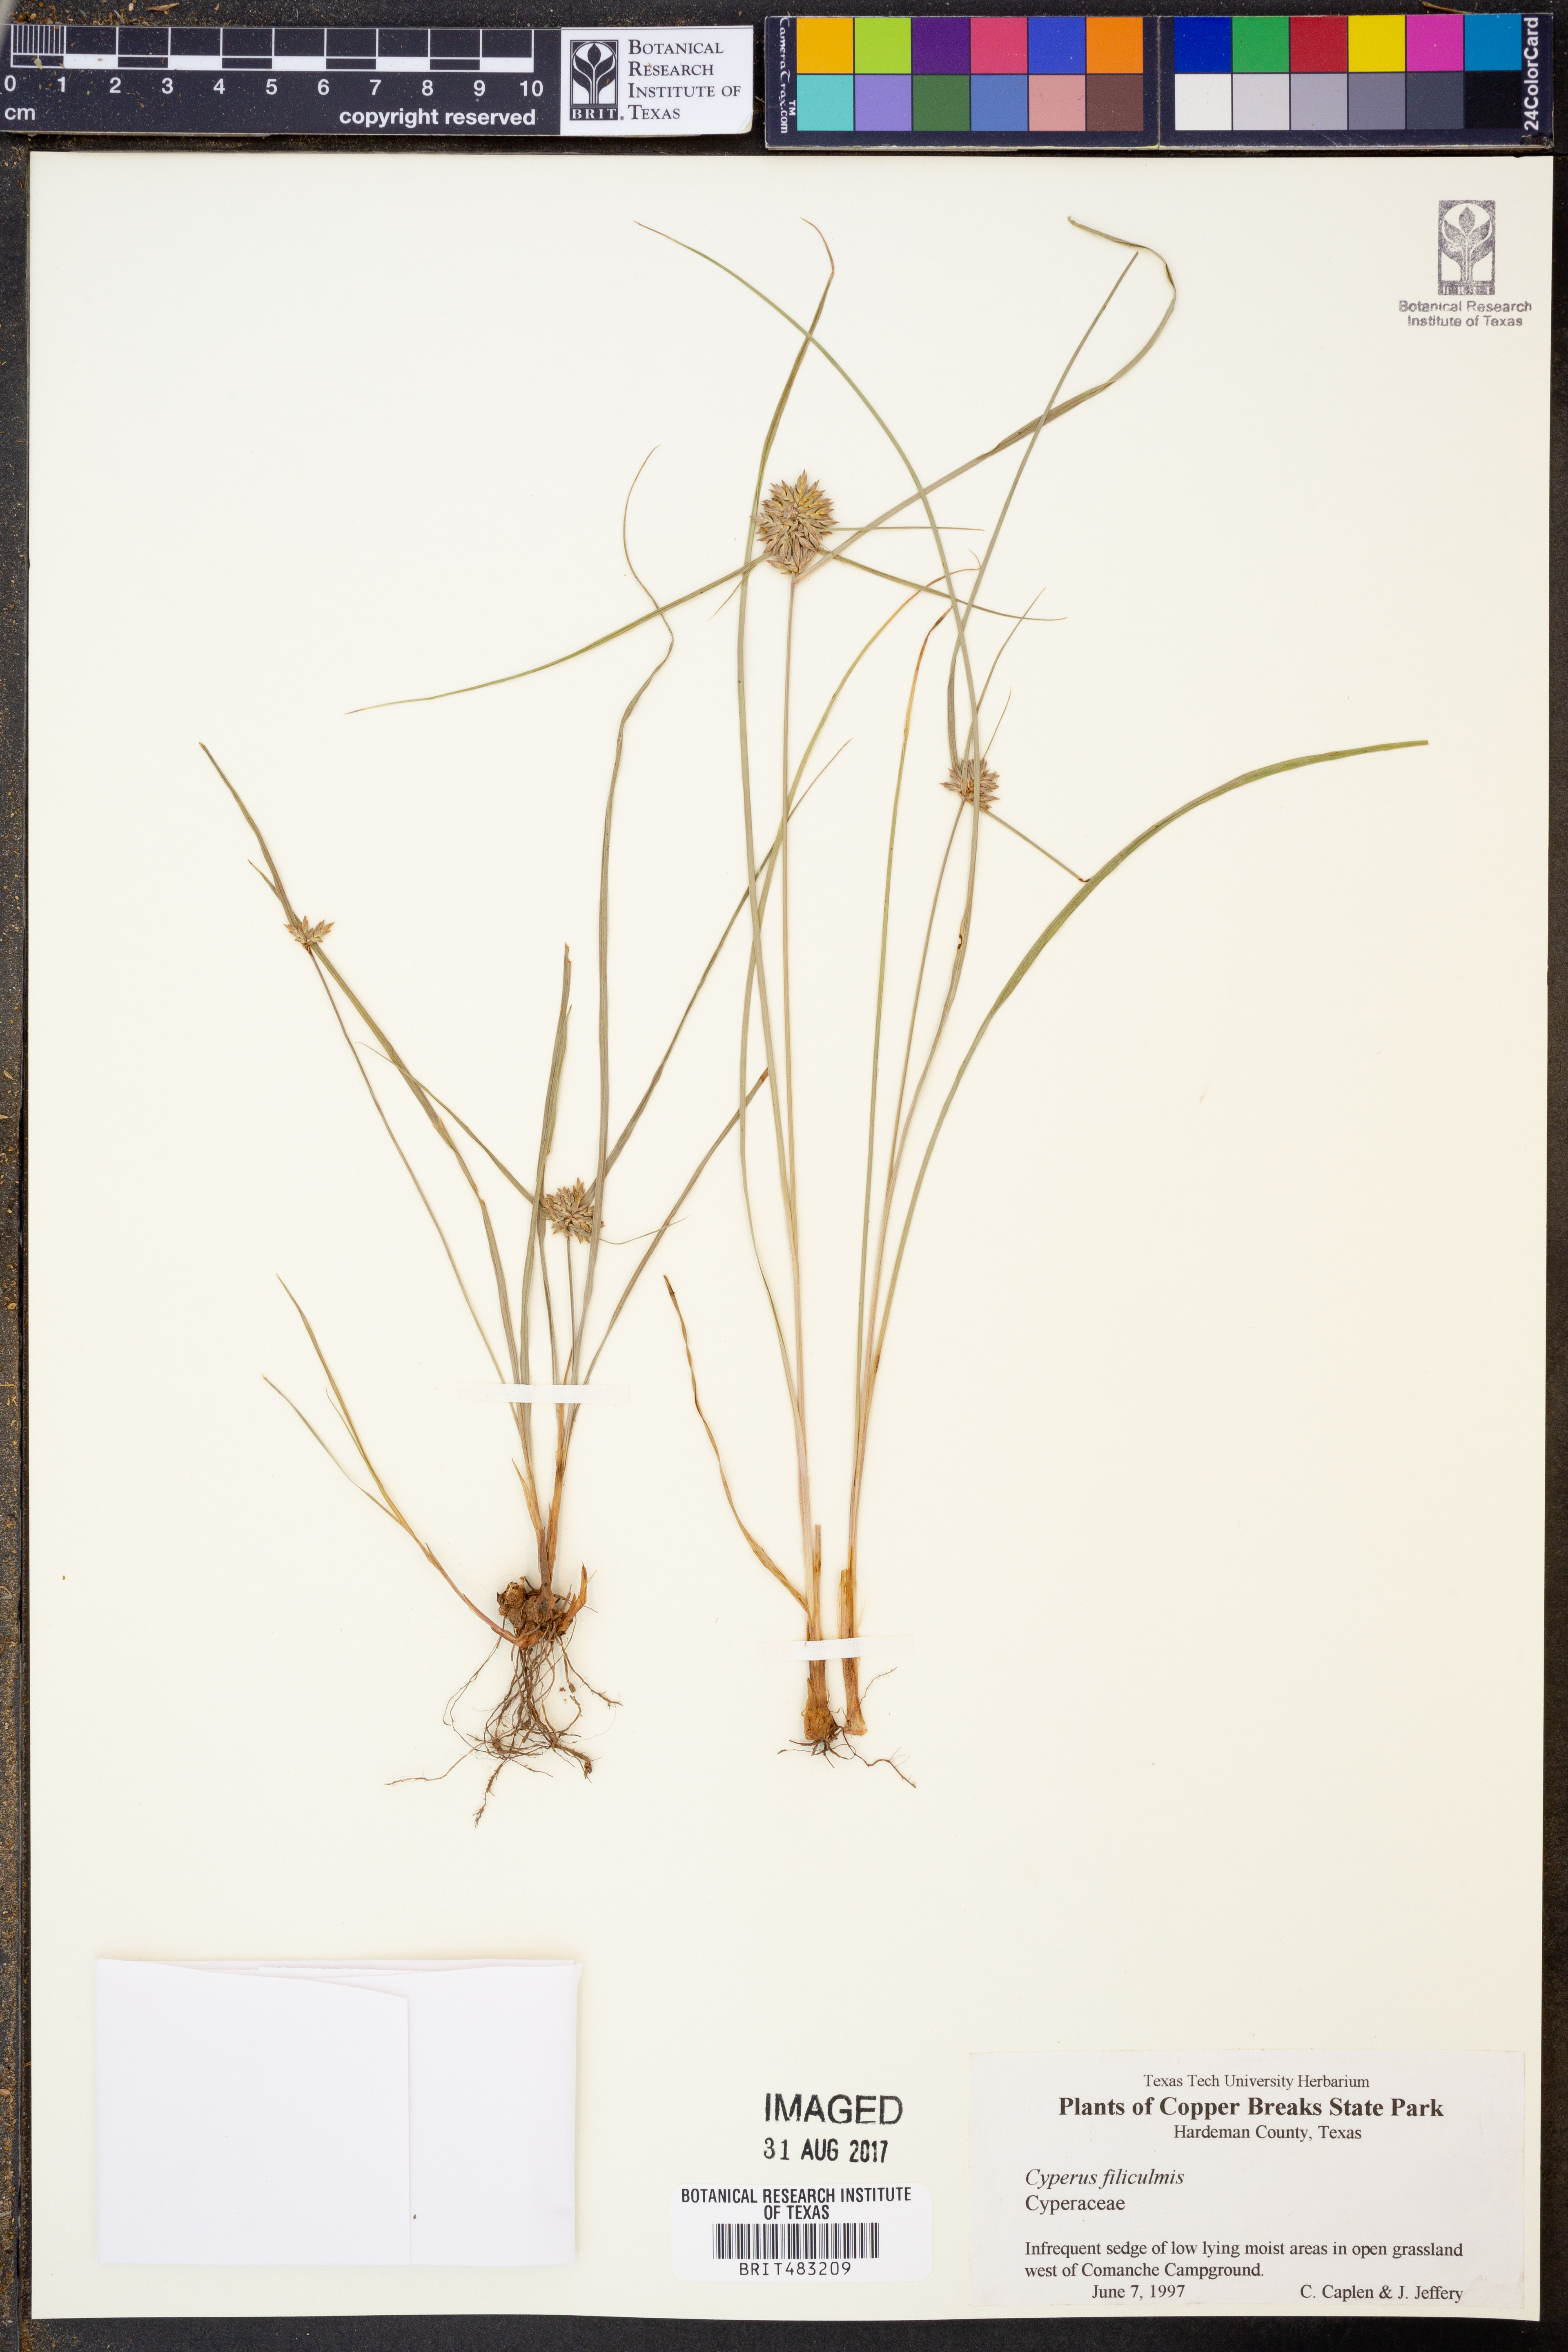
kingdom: Plantae
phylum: Tracheophyta
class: Liliopsida
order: Poales
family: Cyperaceae
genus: Cyperus
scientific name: Cyperus lanceolatus
